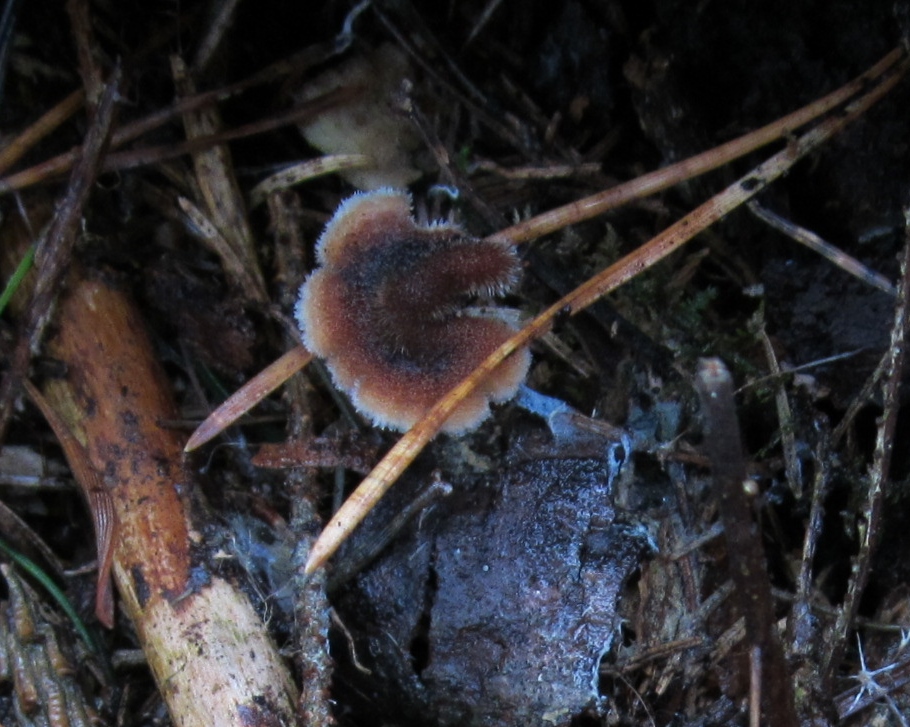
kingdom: Fungi
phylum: Basidiomycota
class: Agaricomycetes
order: Russulales
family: Auriscalpiaceae
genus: Auriscalpium
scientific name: Auriscalpium vulgare
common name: koglepigsvamp
